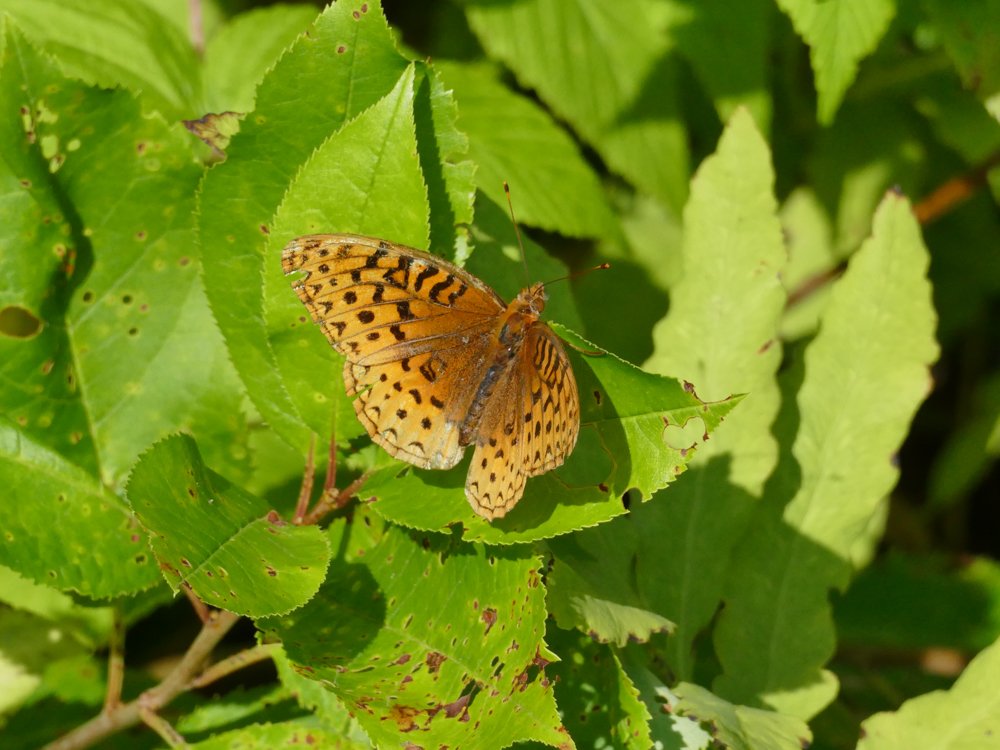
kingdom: Animalia
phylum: Arthropoda
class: Insecta
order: Lepidoptera
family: Nymphalidae
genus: Speyeria
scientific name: Speyeria cybele
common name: Great Spangled Fritillary
